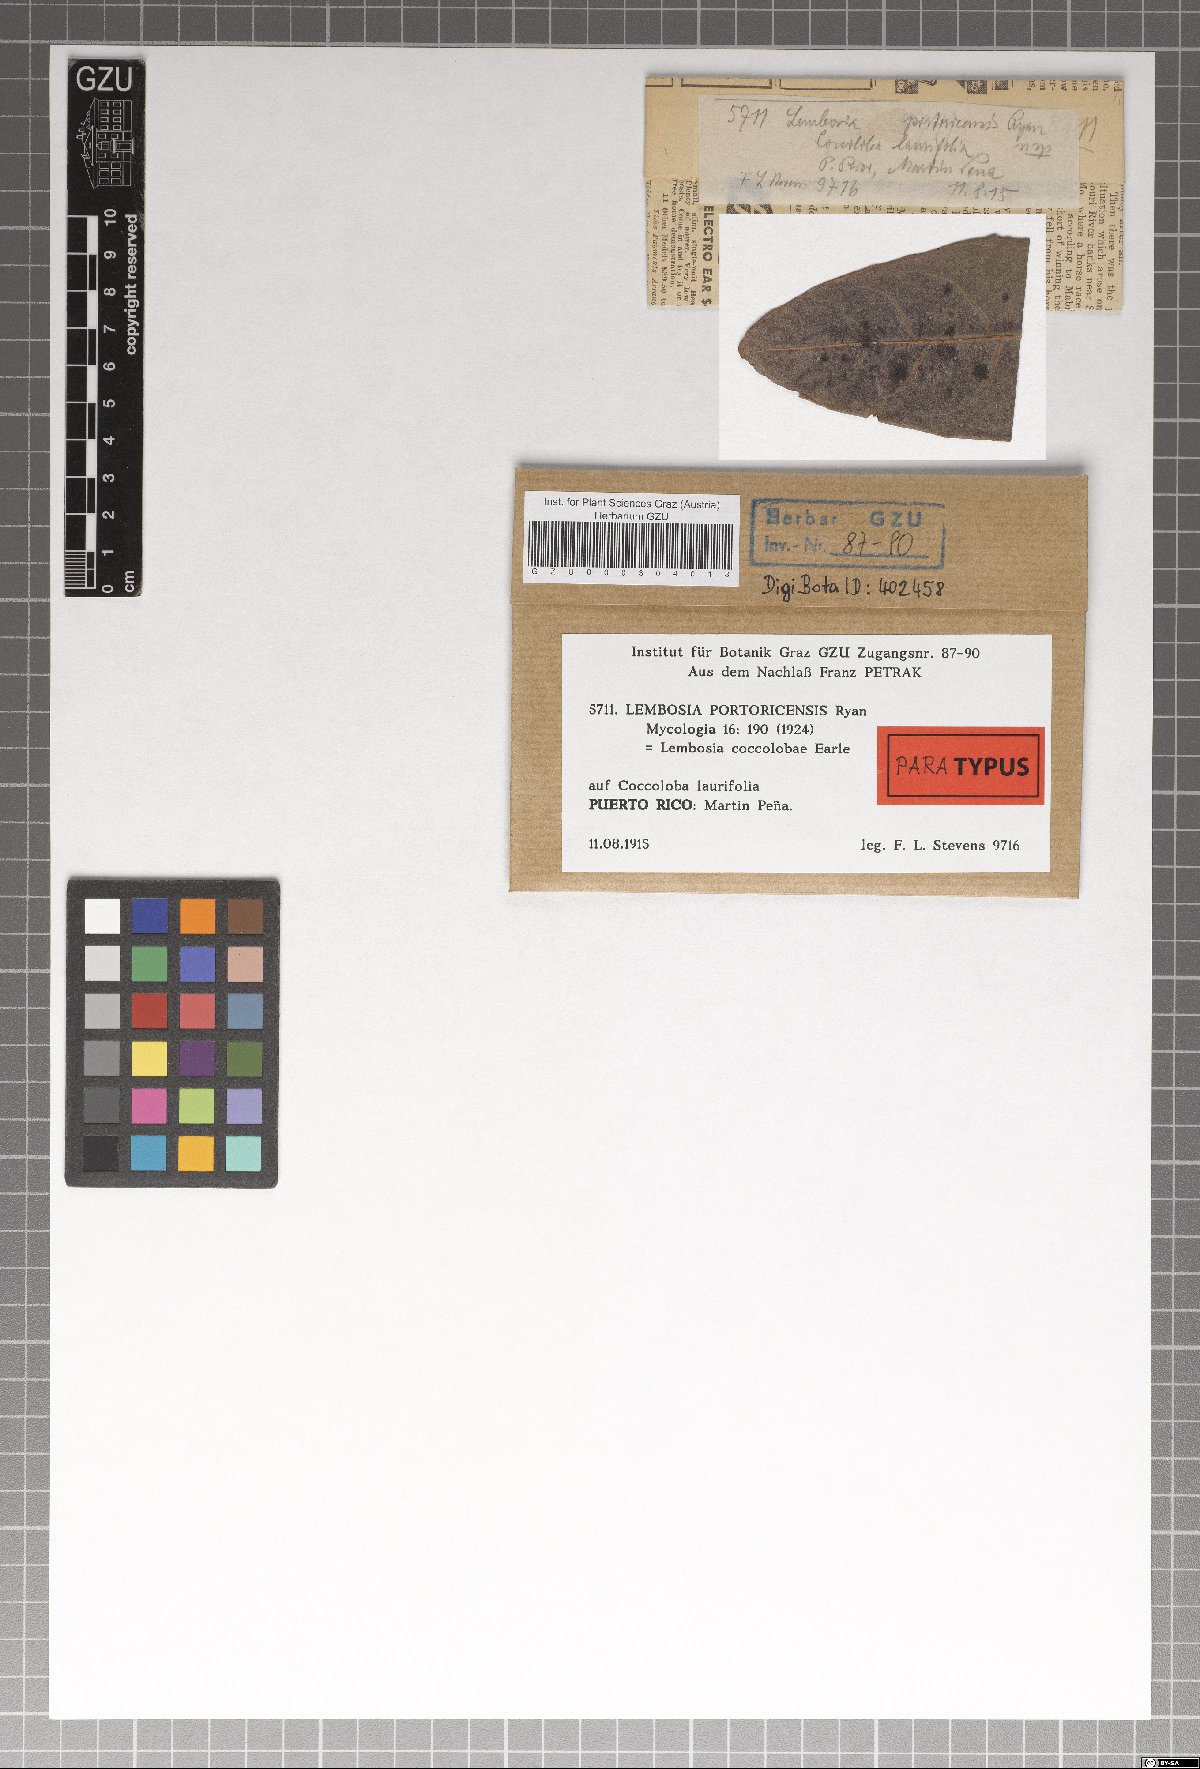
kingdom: Fungi
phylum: Ascomycota
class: Dothideomycetes
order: Asterinales
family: Asterinaceae
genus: Lembosia
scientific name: Lembosia portoricensis
